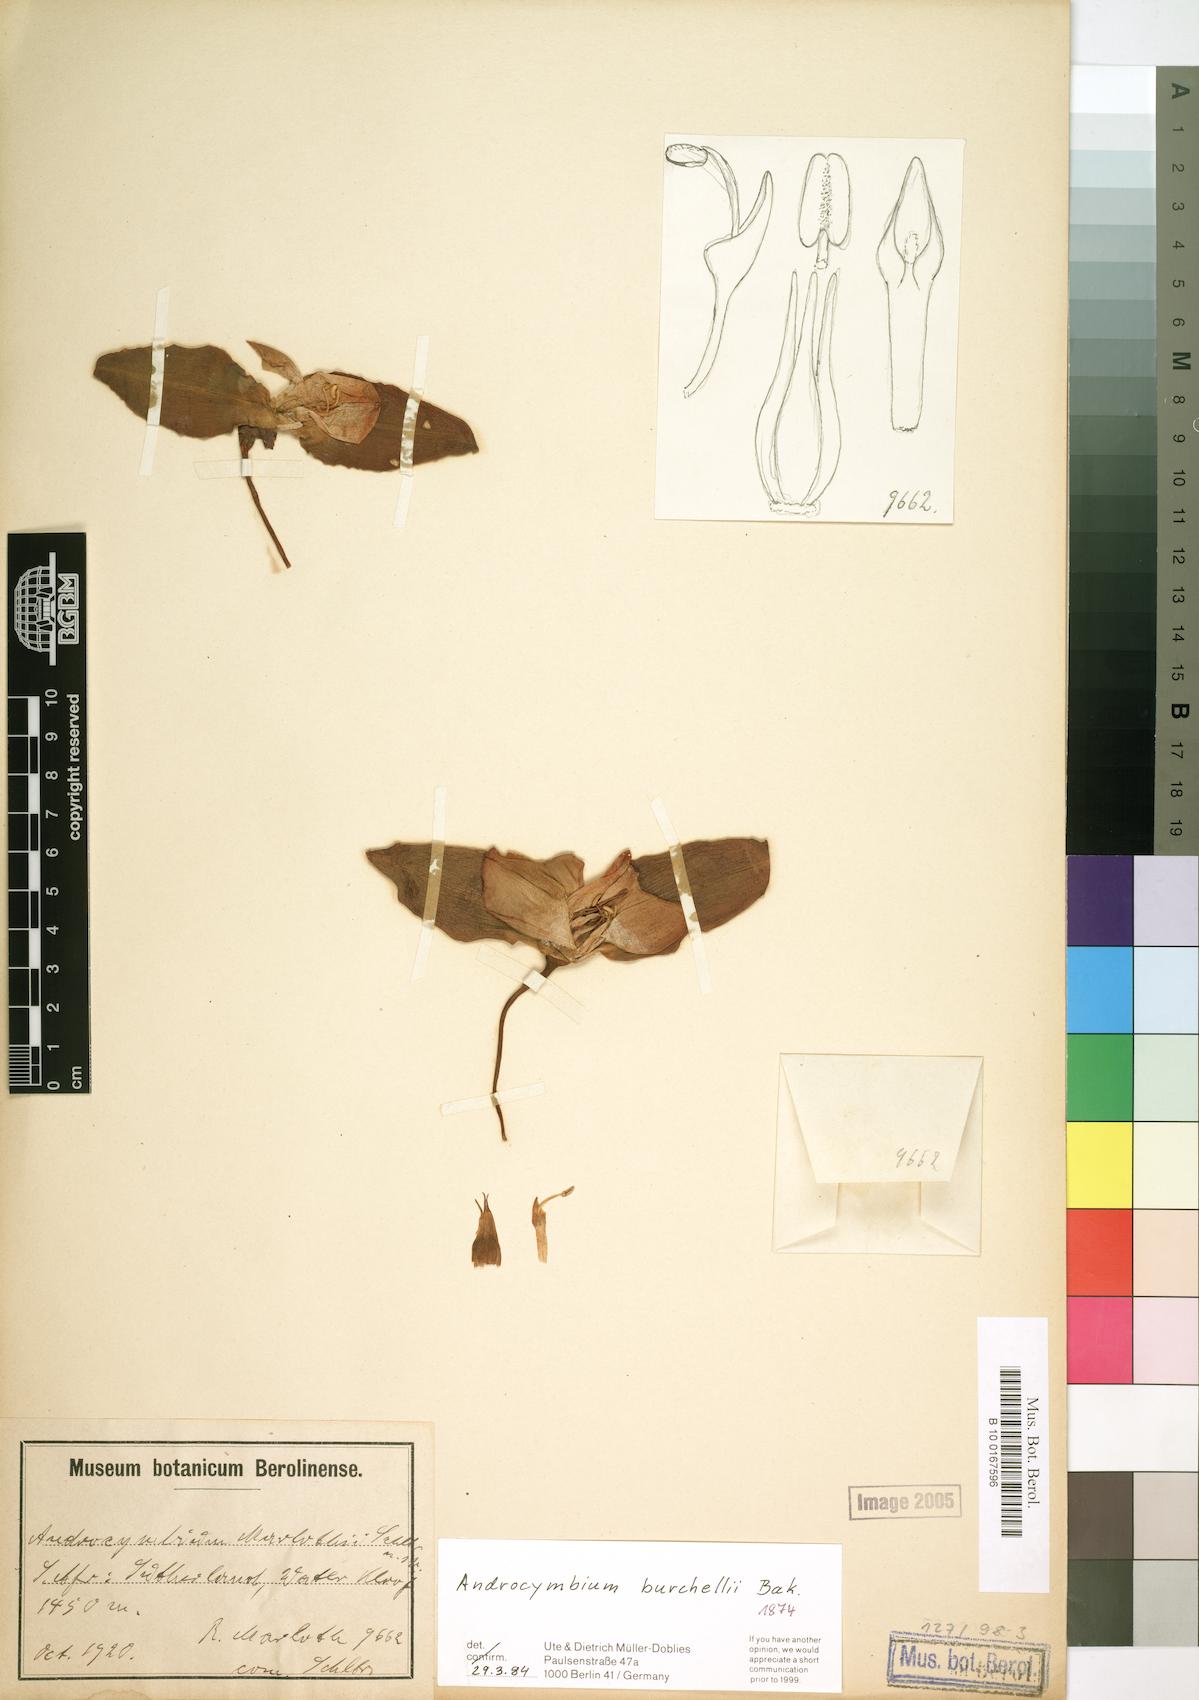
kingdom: Plantae
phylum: Tracheophyta
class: Liliopsida
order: Liliales
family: Colchicaceae
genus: Colchicum
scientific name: Colchicum burchellii
